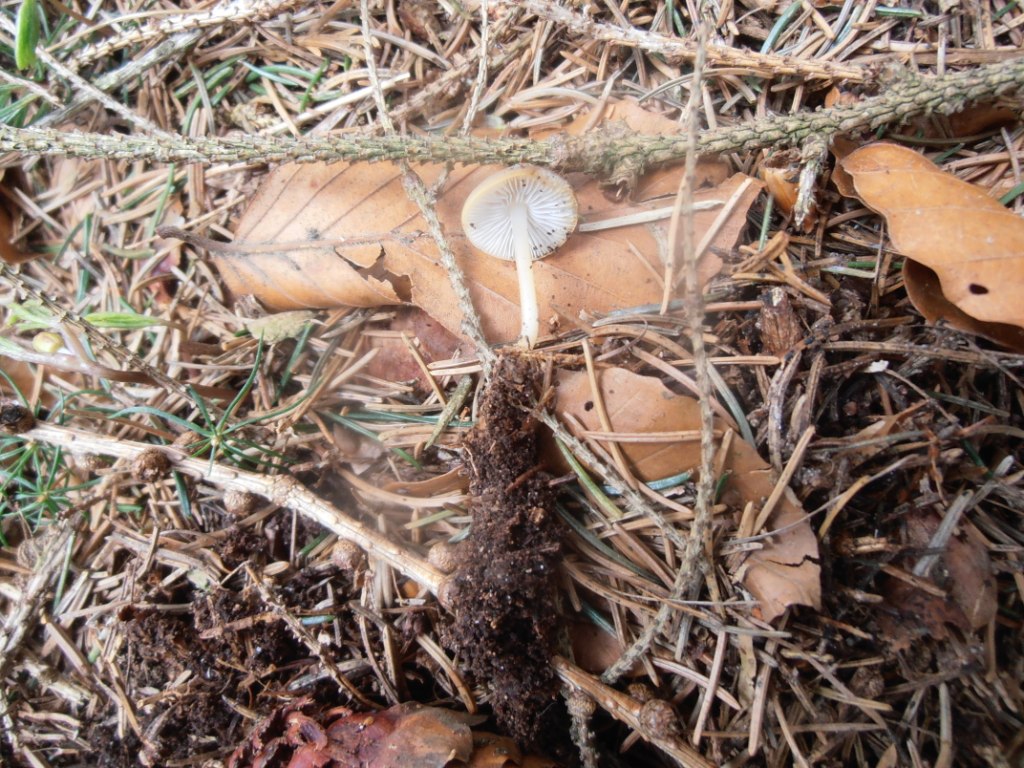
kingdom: Fungi
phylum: Basidiomycota
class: Agaricomycetes
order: Agaricales
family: Physalacriaceae
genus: Strobilurus
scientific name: Strobilurus esculentus
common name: gran-koglehat
